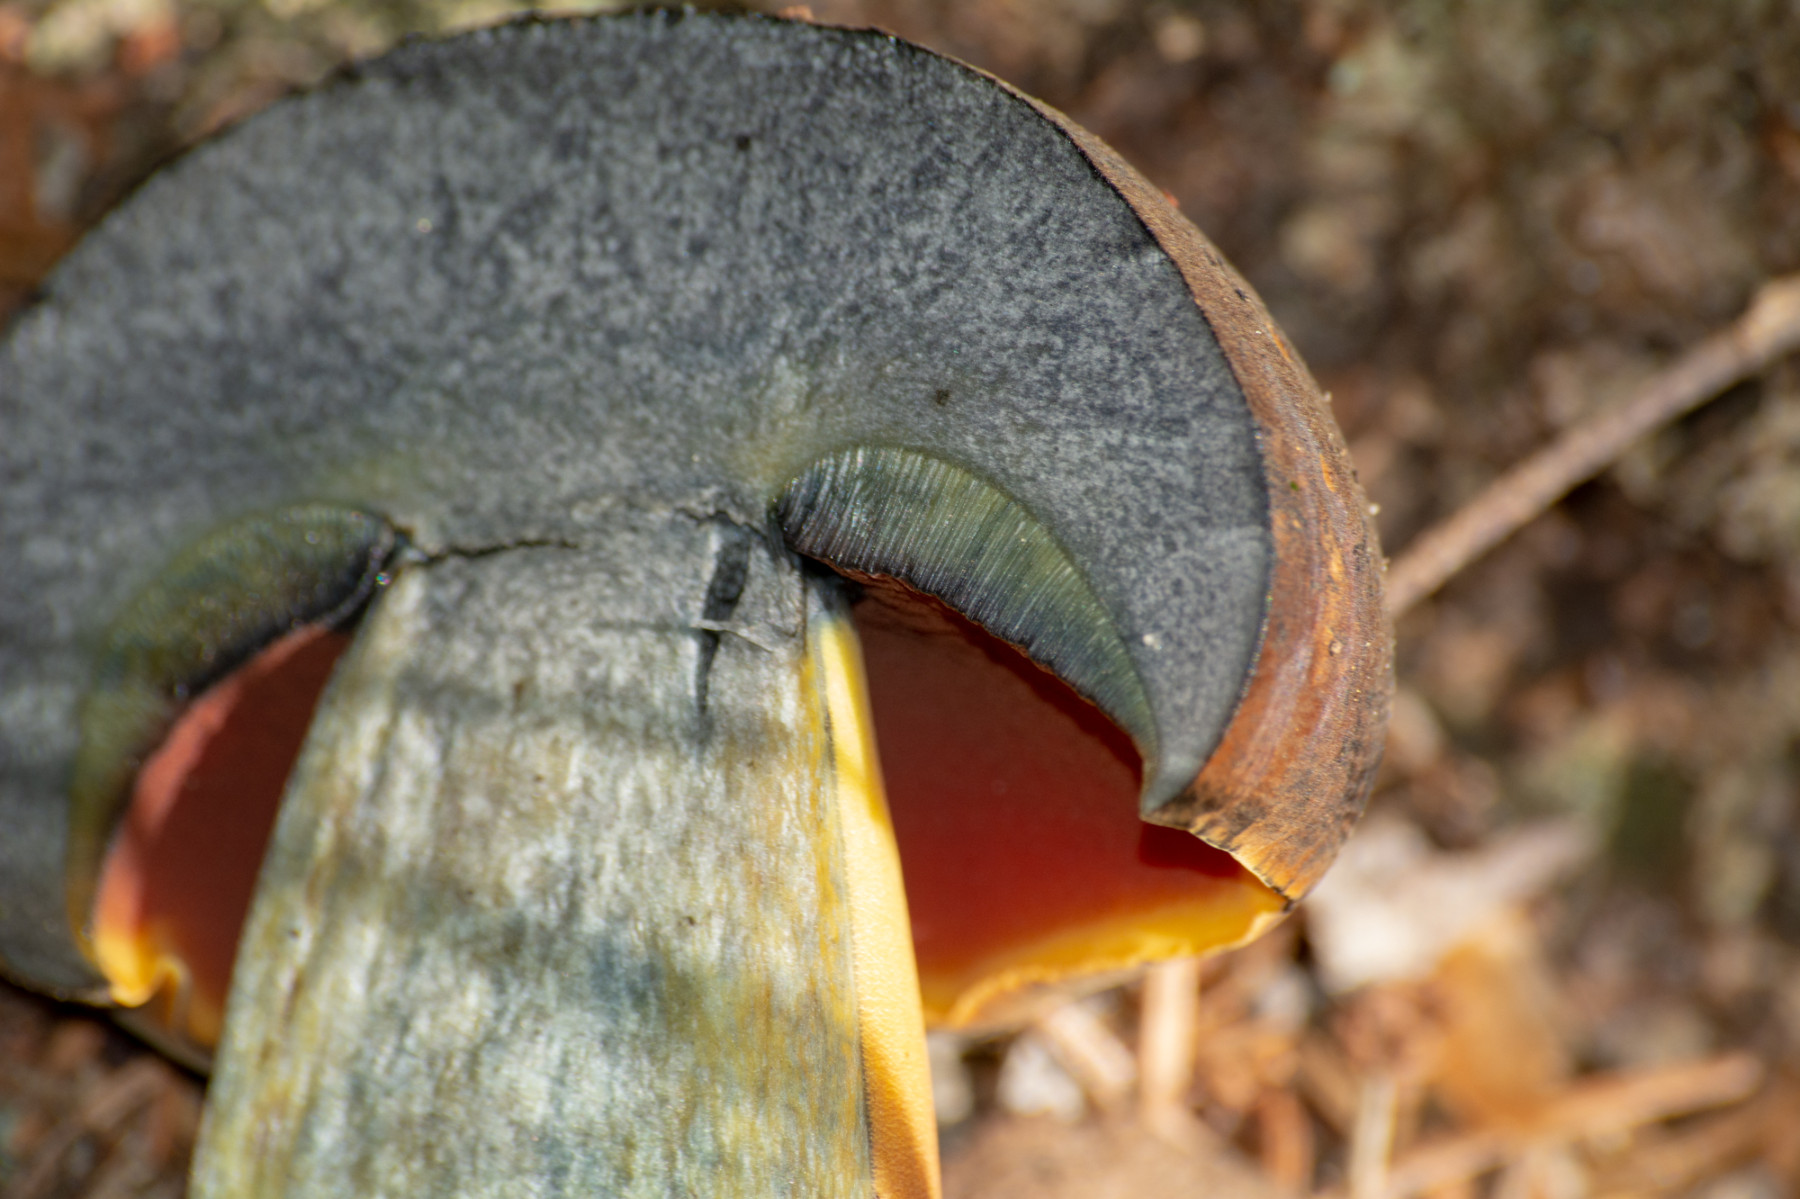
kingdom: Fungi
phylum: Basidiomycota
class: Agaricomycetes
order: Boletales
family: Boletaceae
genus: Neoboletus
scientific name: Neoboletus erythropus
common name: punktstokket indigorørhat
